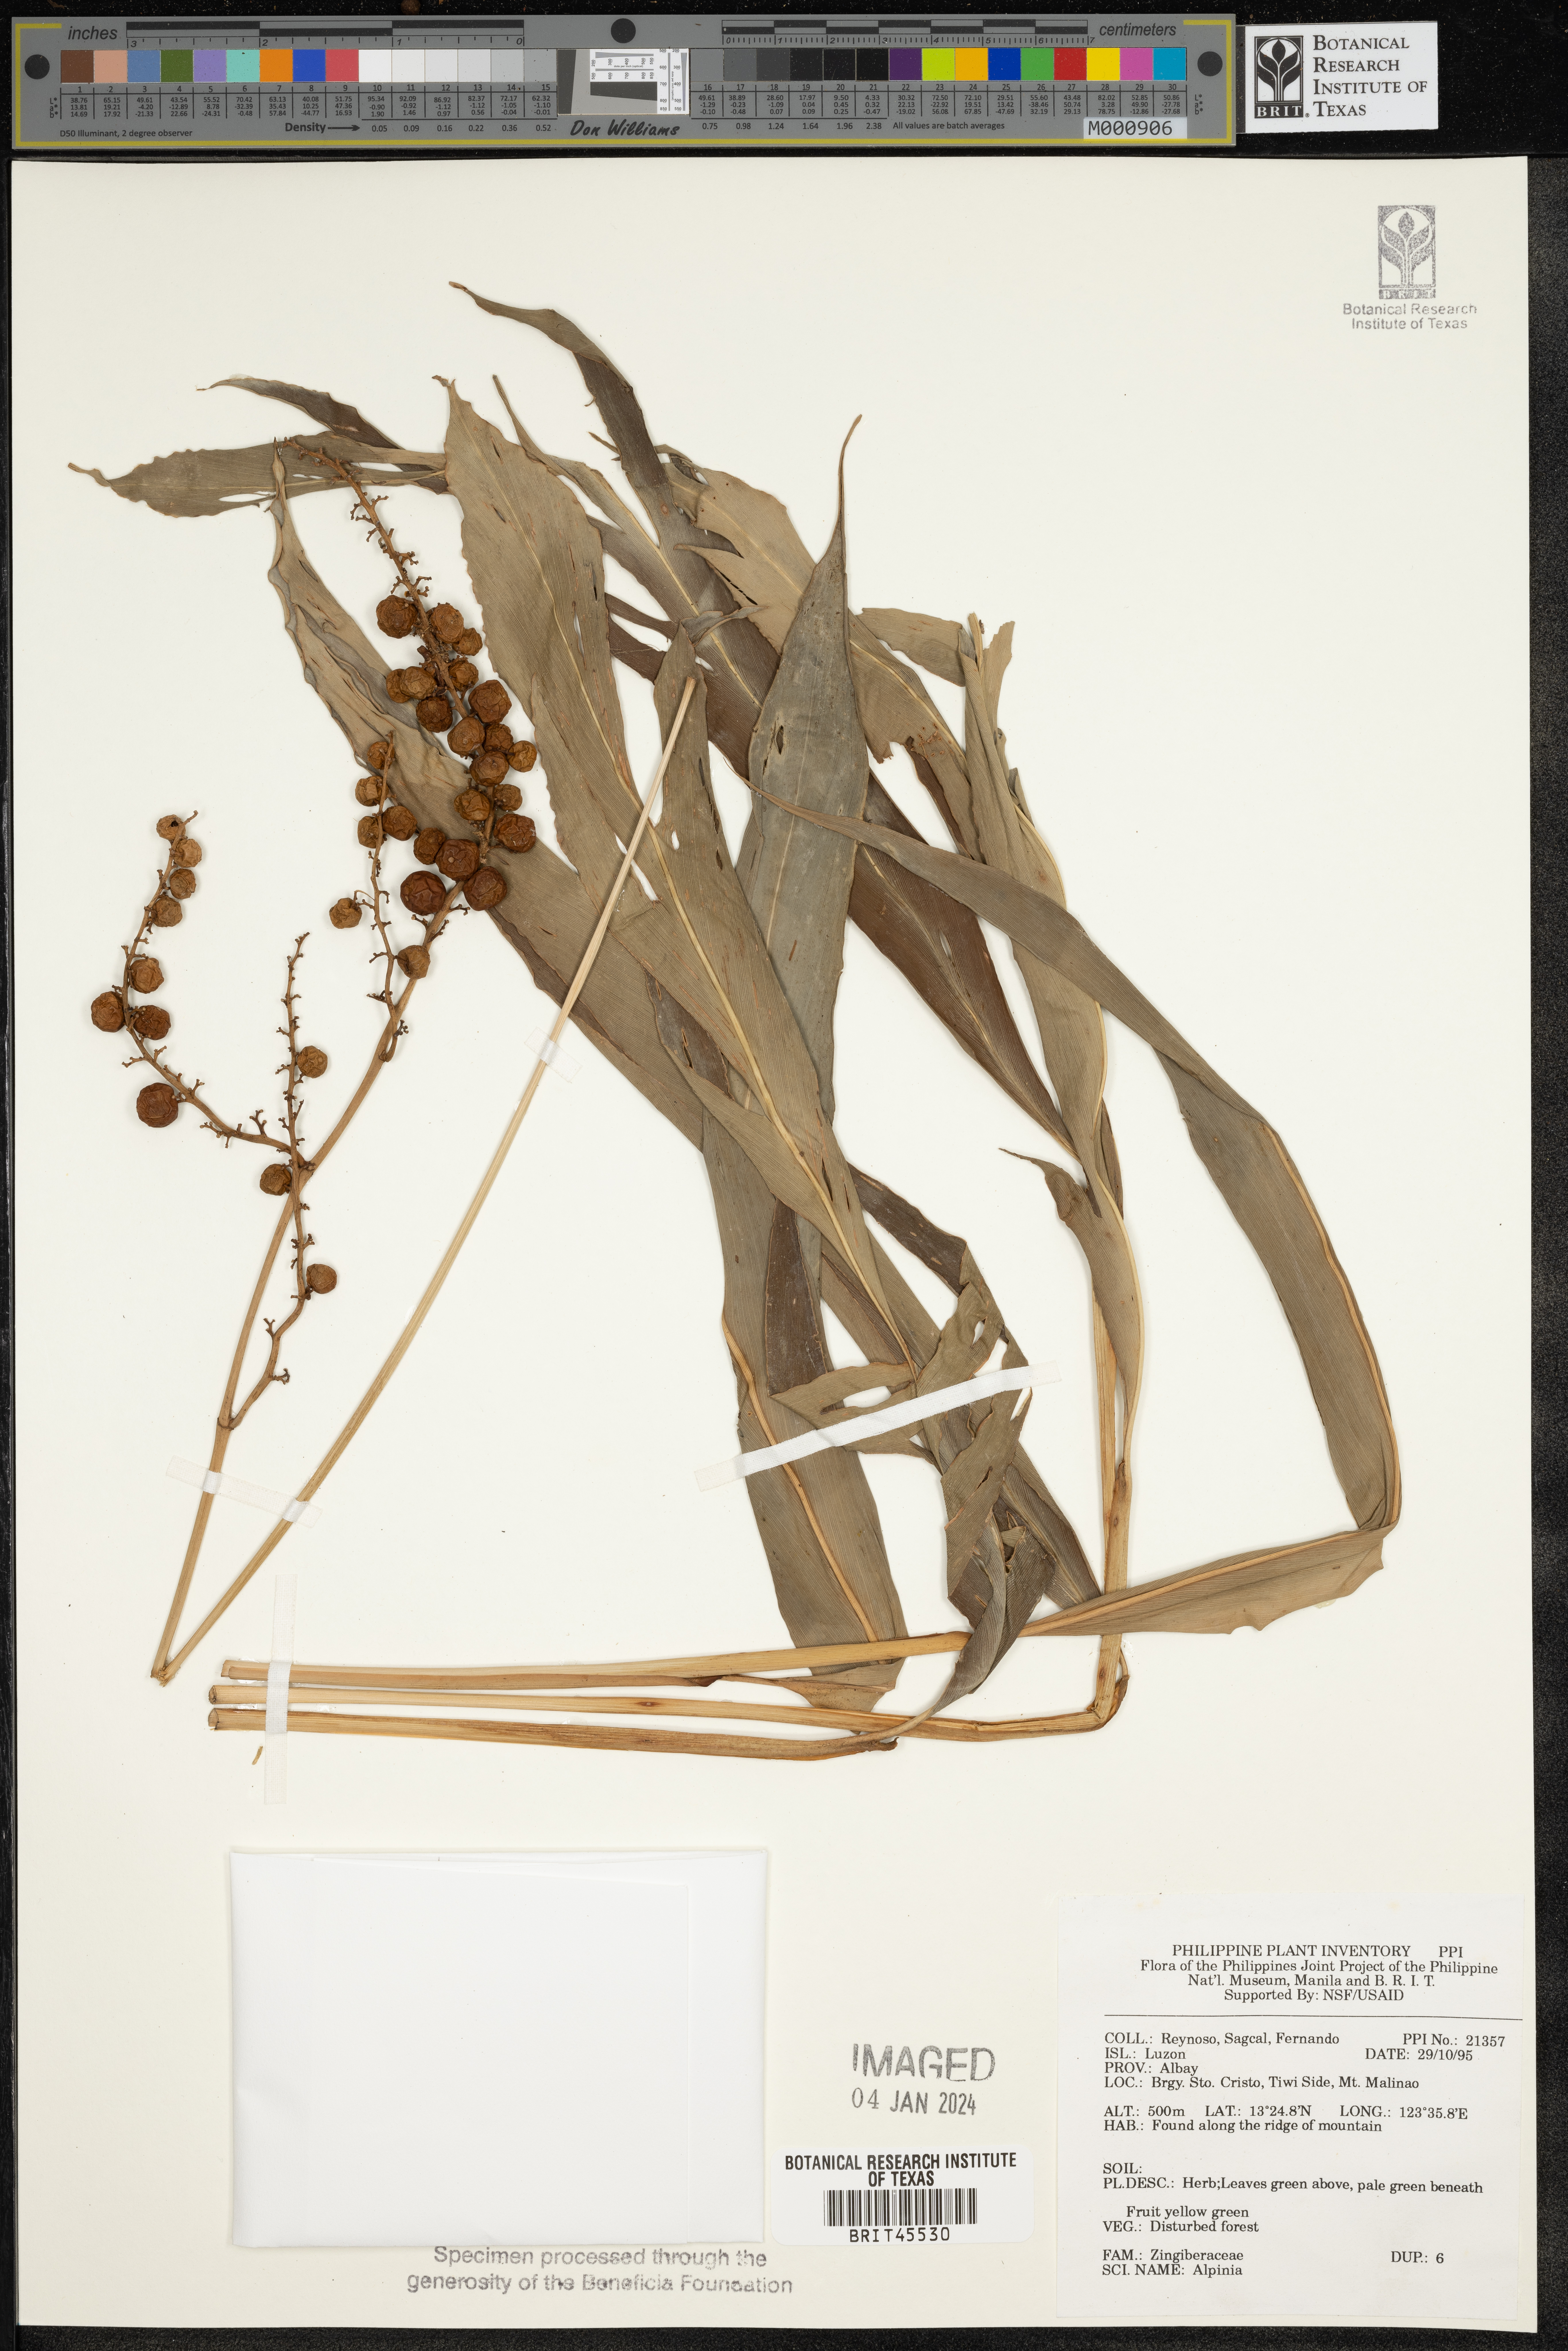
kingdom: Plantae
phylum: Tracheophyta
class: Liliopsida
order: Zingiberales
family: Zingiberaceae
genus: Alpinia
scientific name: Alpinia
